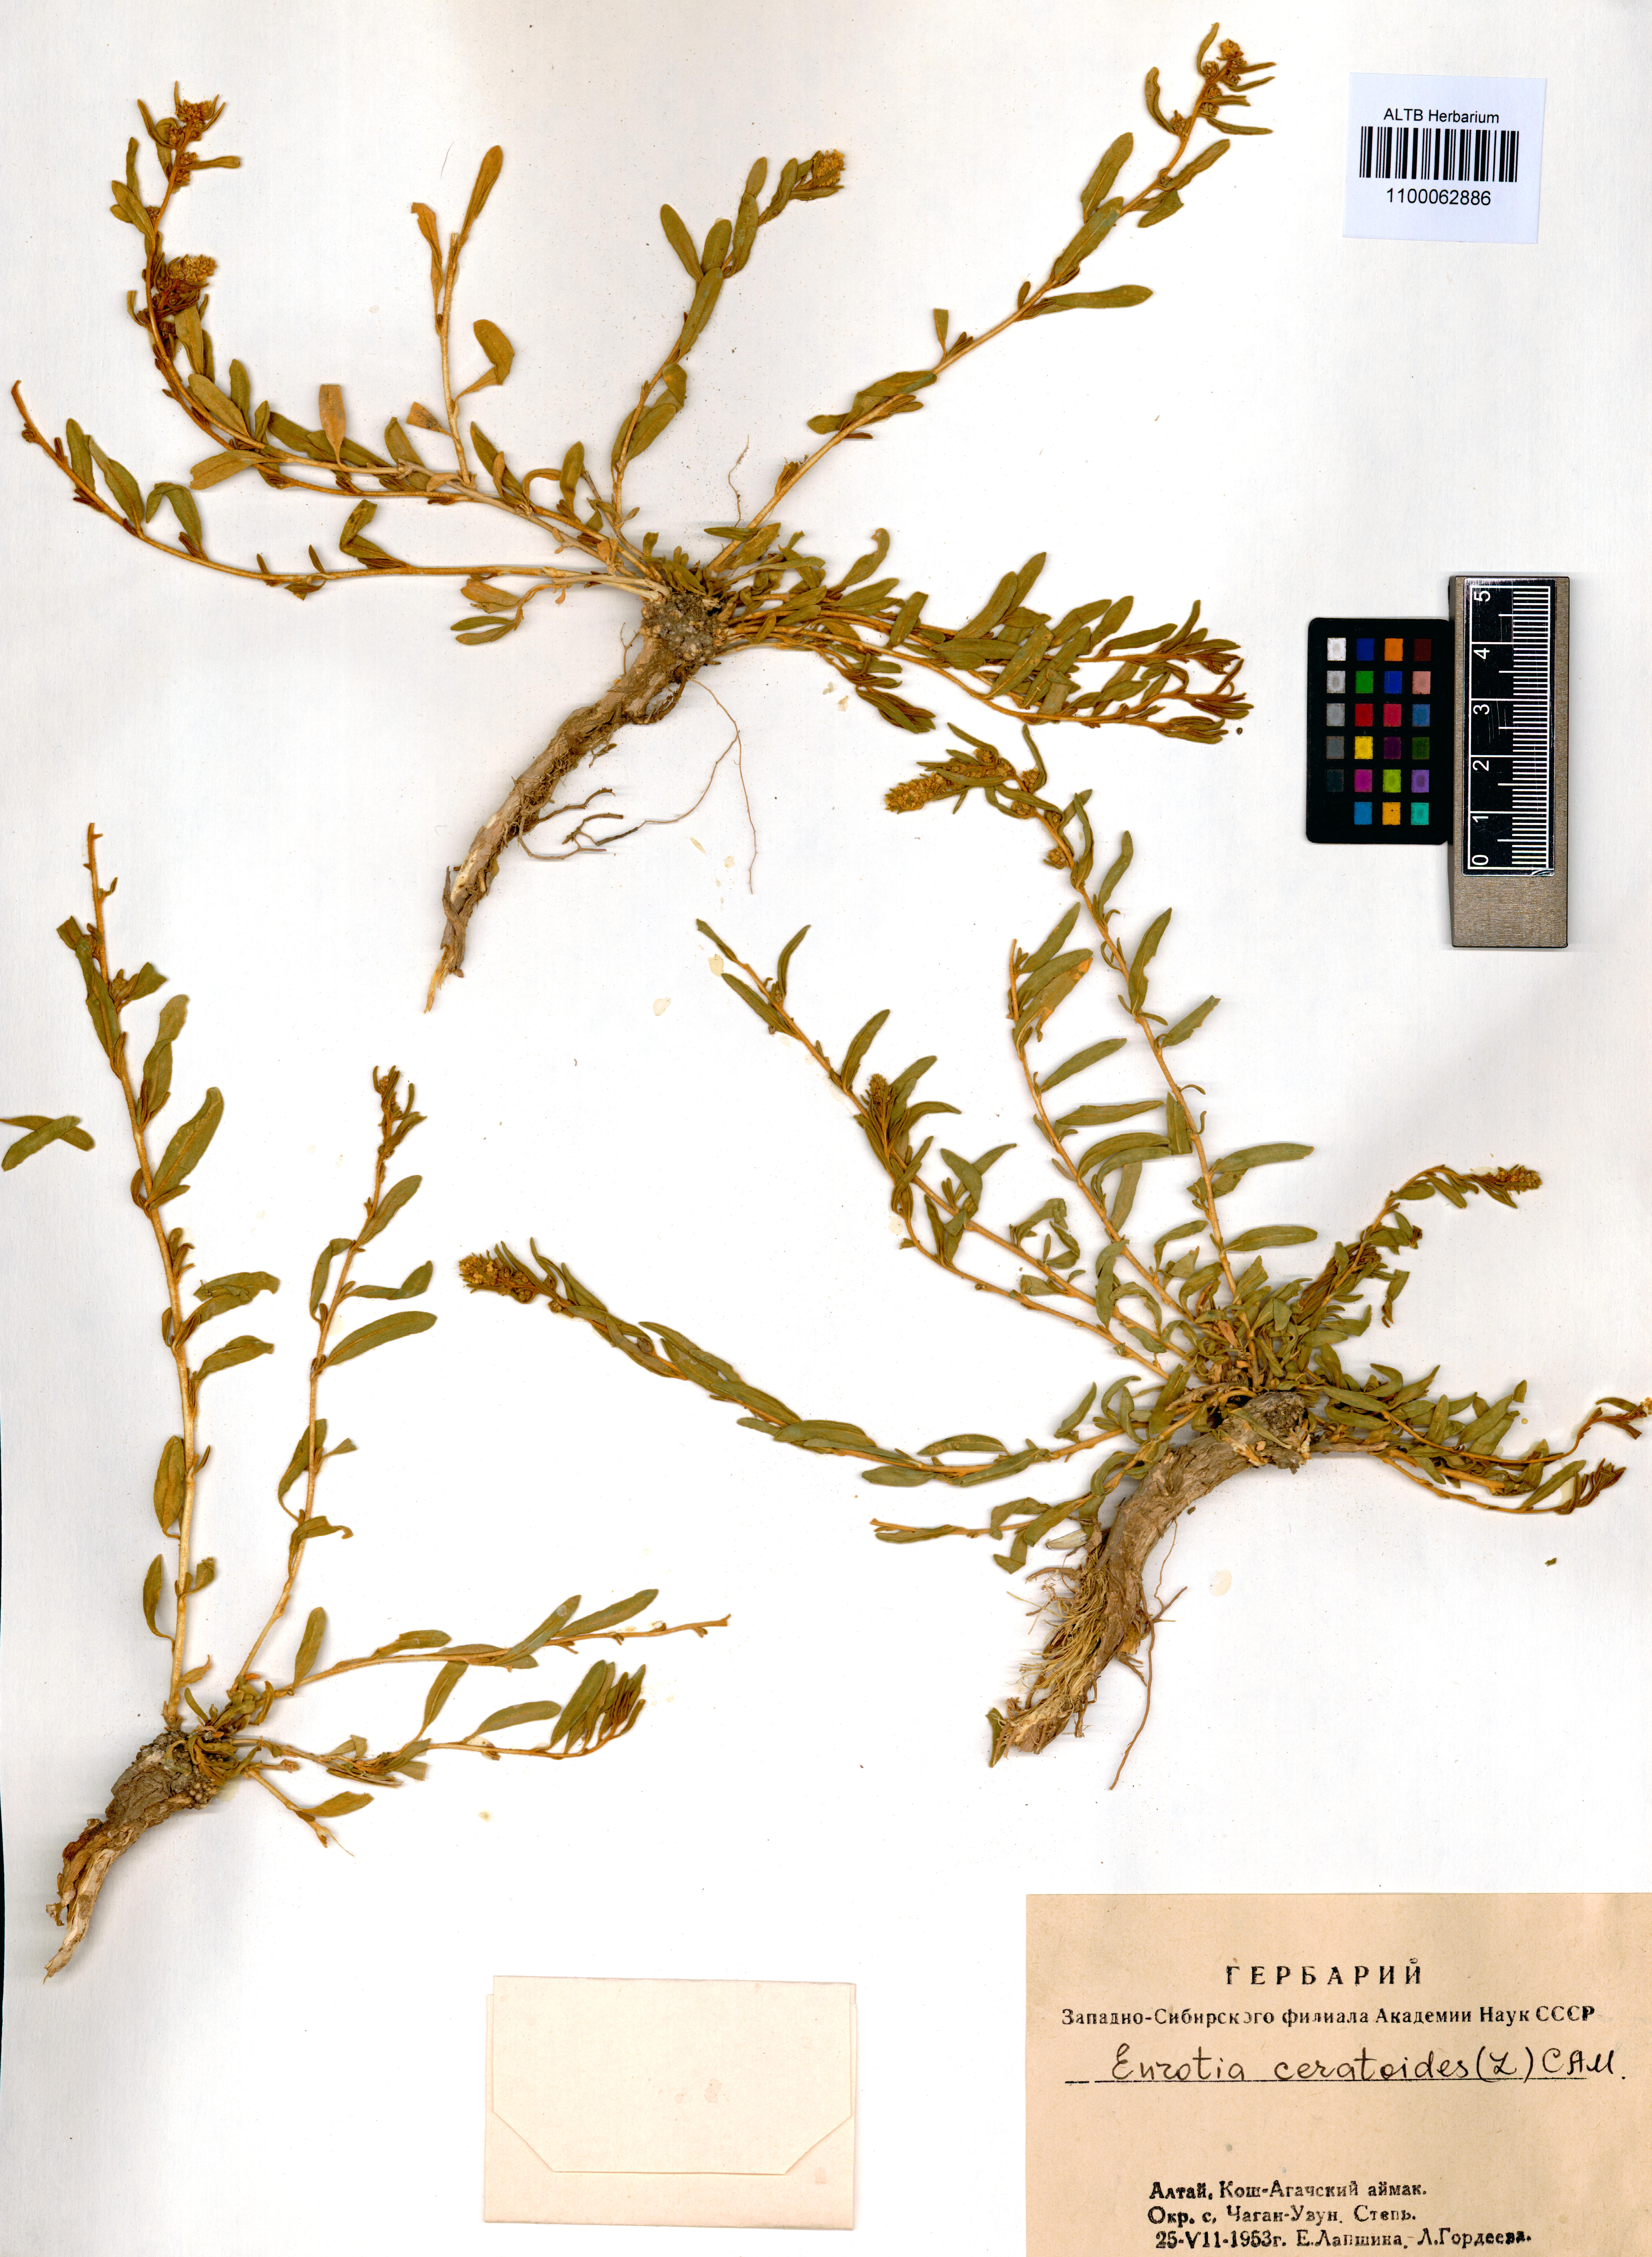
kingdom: Plantae
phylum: Tracheophyta
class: Magnoliopsida
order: Caryophyllales
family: Amaranthaceae
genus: Krascheninnikovia
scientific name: Krascheninnikovia ceratoides
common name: Pamirian winterfat
